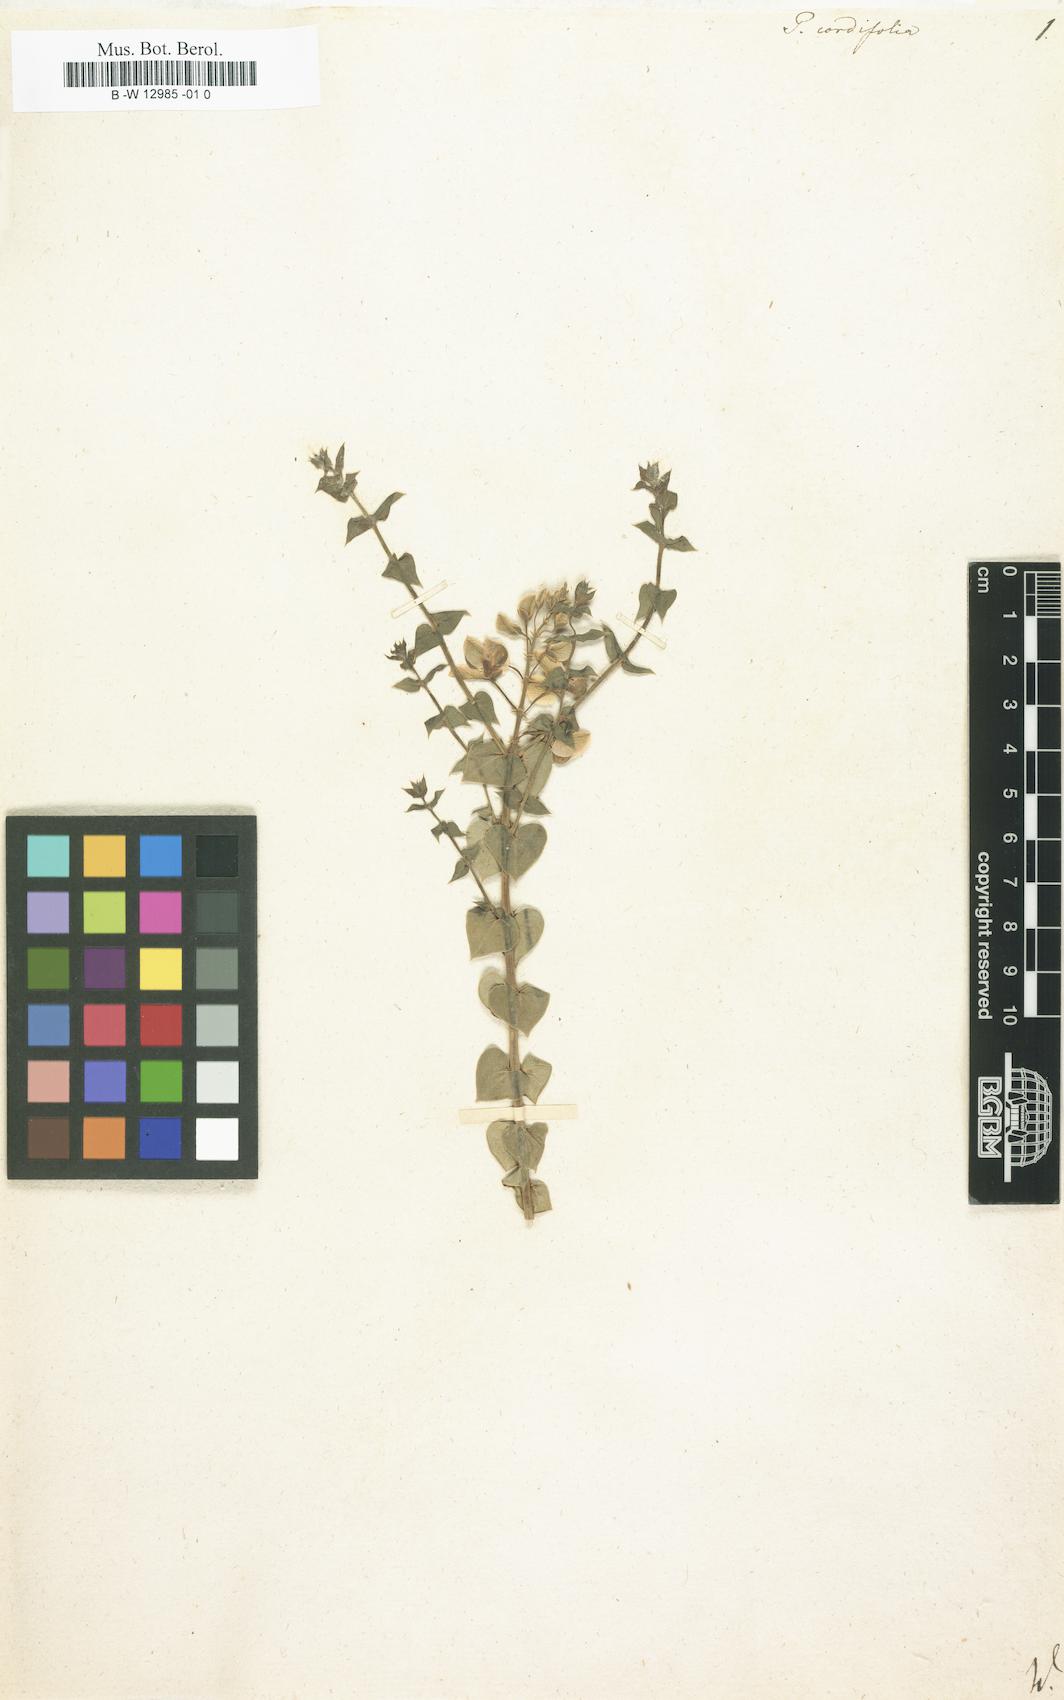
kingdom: Plantae
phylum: Tracheophyta
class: Magnoliopsida
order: Fabales
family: Polygalaceae
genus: Polygala
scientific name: Polygala cordifolia
